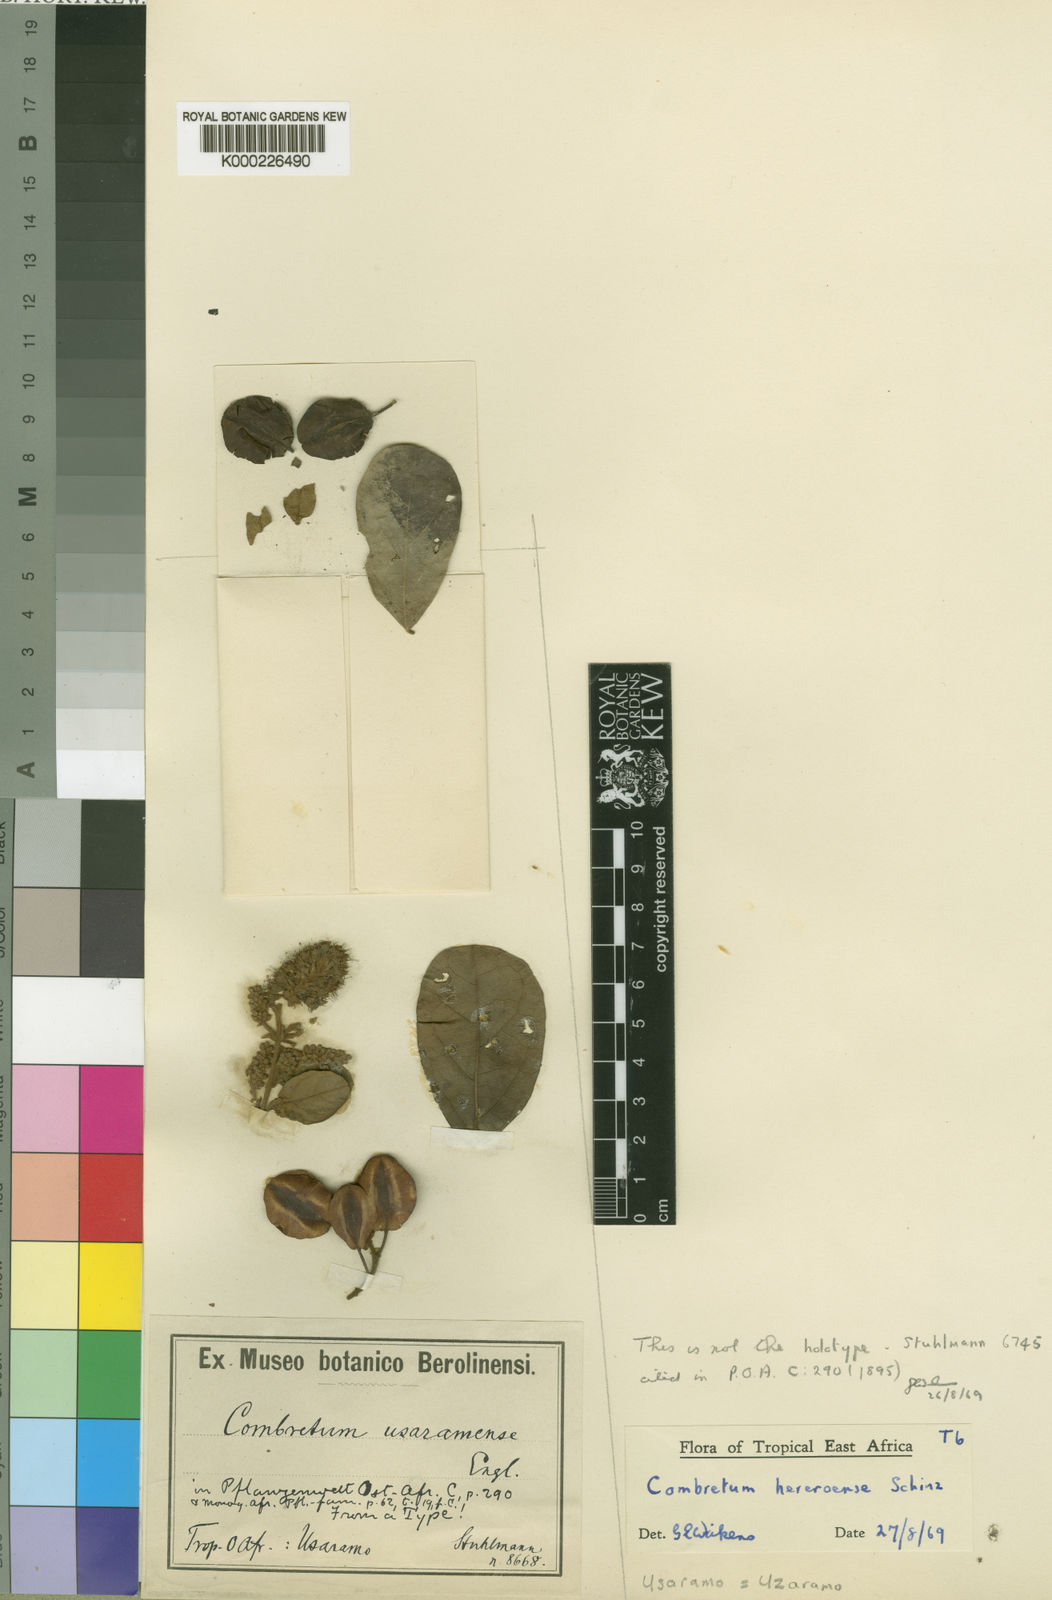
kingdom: Plantae
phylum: Tracheophyta
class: Magnoliopsida
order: Myrtales
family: Combretaceae
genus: Combretum
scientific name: Combretum hereroense
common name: Russet bushwillow
